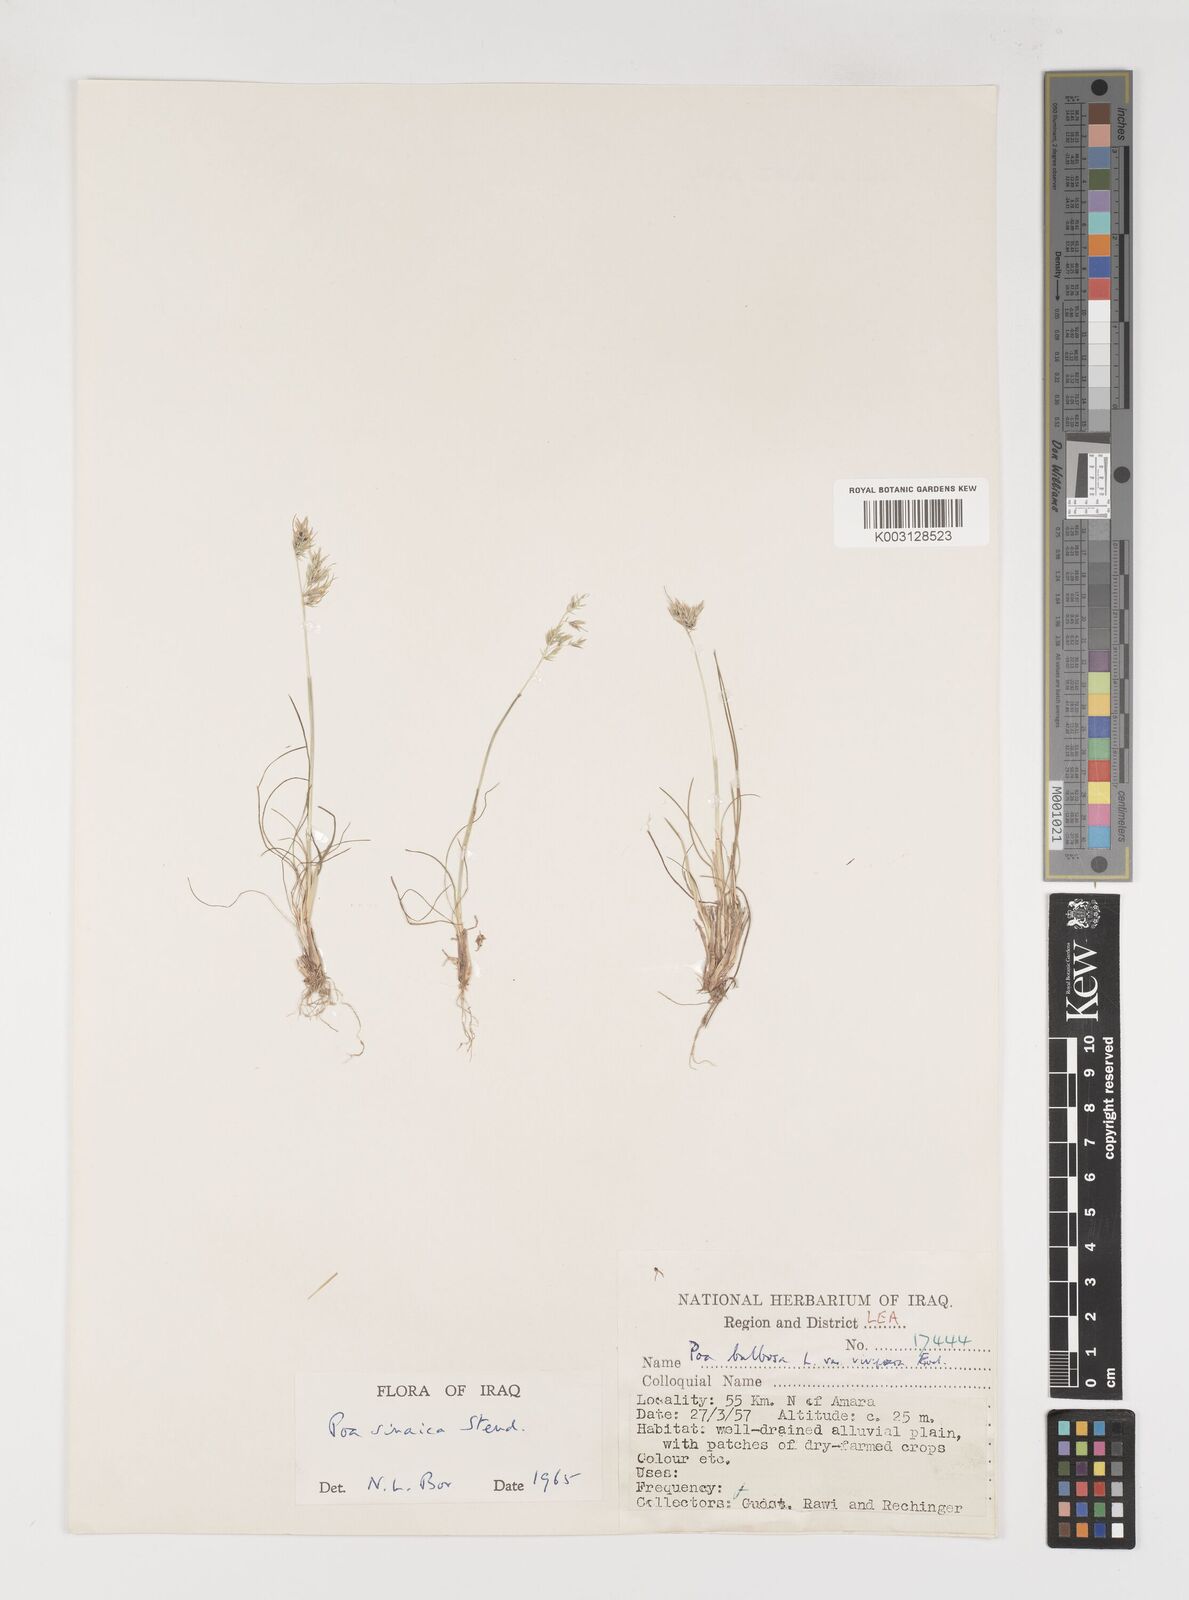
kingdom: Plantae
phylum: Tracheophyta
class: Liliopsida
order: Poales
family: Poaceae
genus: Poa
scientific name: Poa sinaica
